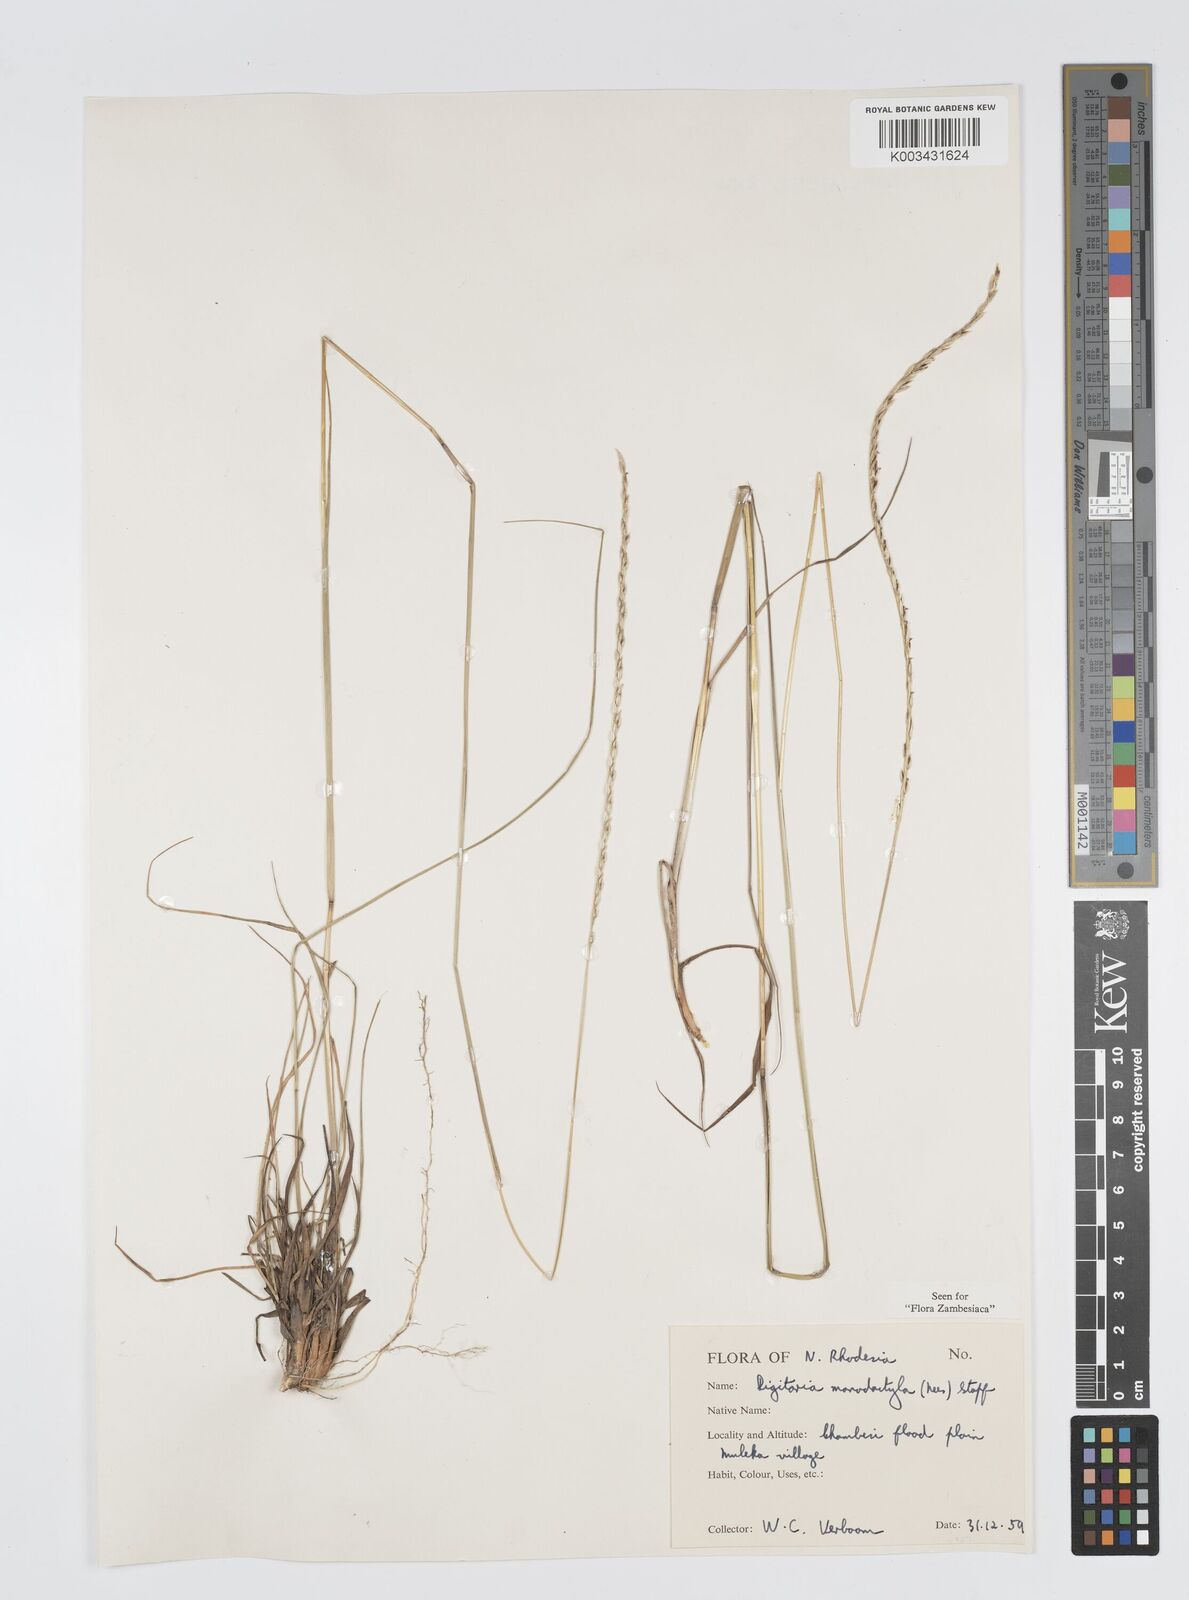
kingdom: Plantae
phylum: Tracheophyta
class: Liliopsida
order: Poales
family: Poaceae
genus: Digitaria
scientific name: Digitaria monodactyla
